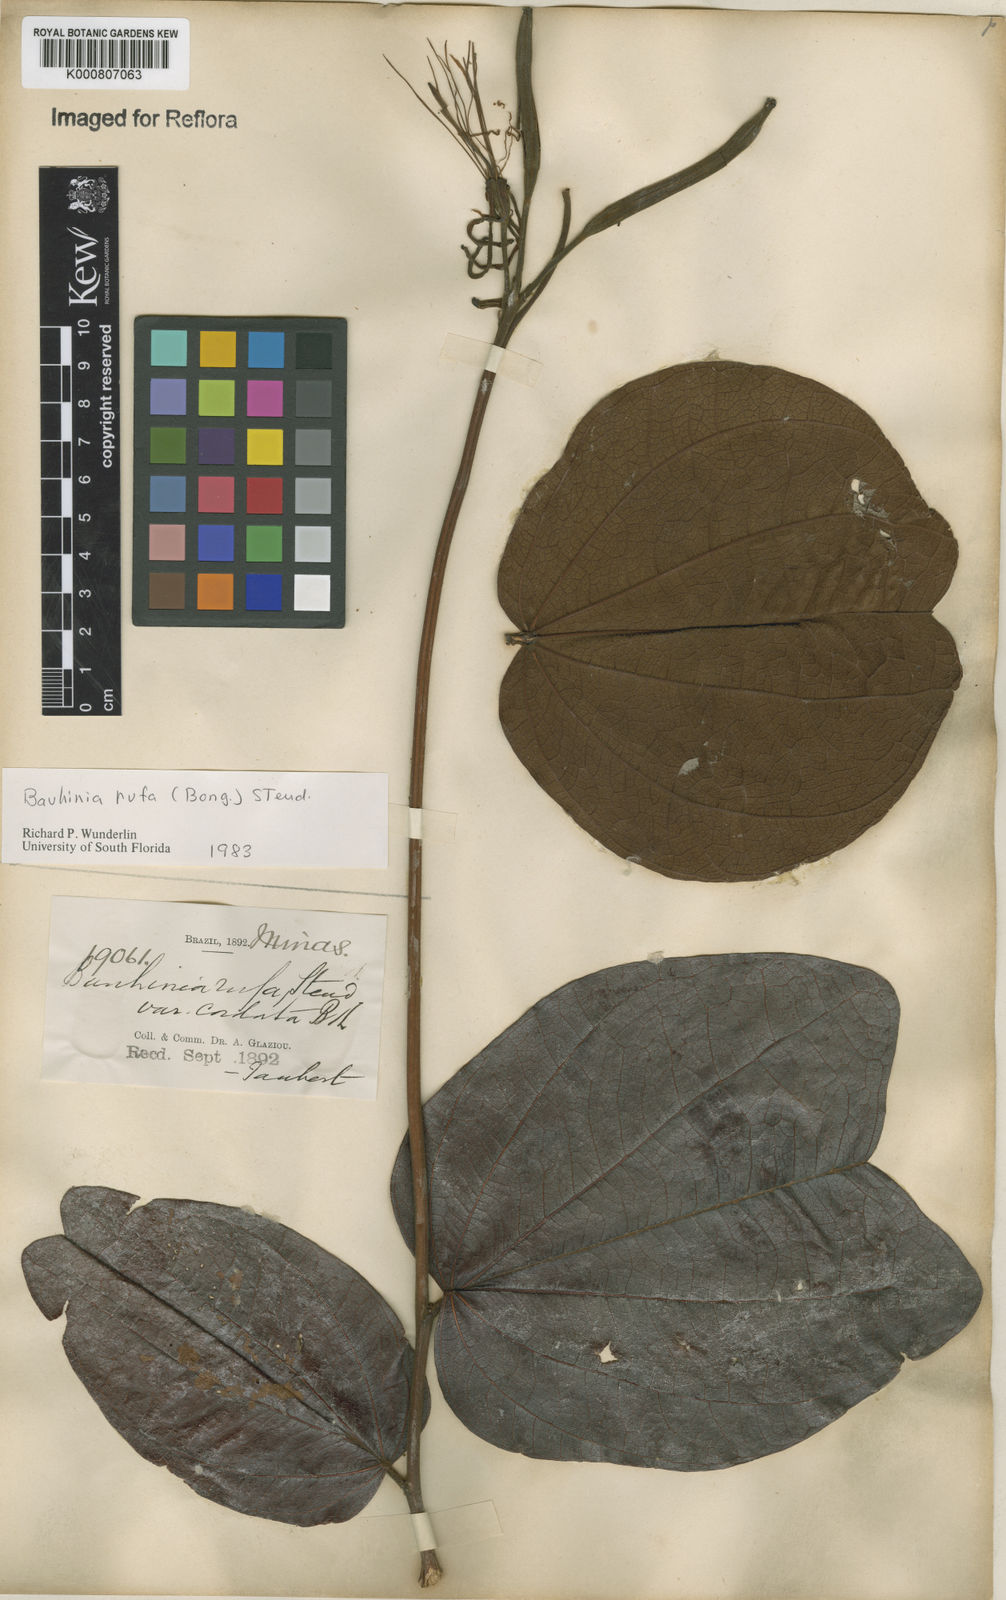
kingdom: Plantae
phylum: Tracheophyta
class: Magnoliopsida
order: Fabales
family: Fabaceae
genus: Bauhinia
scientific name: Bauhinia rufa
